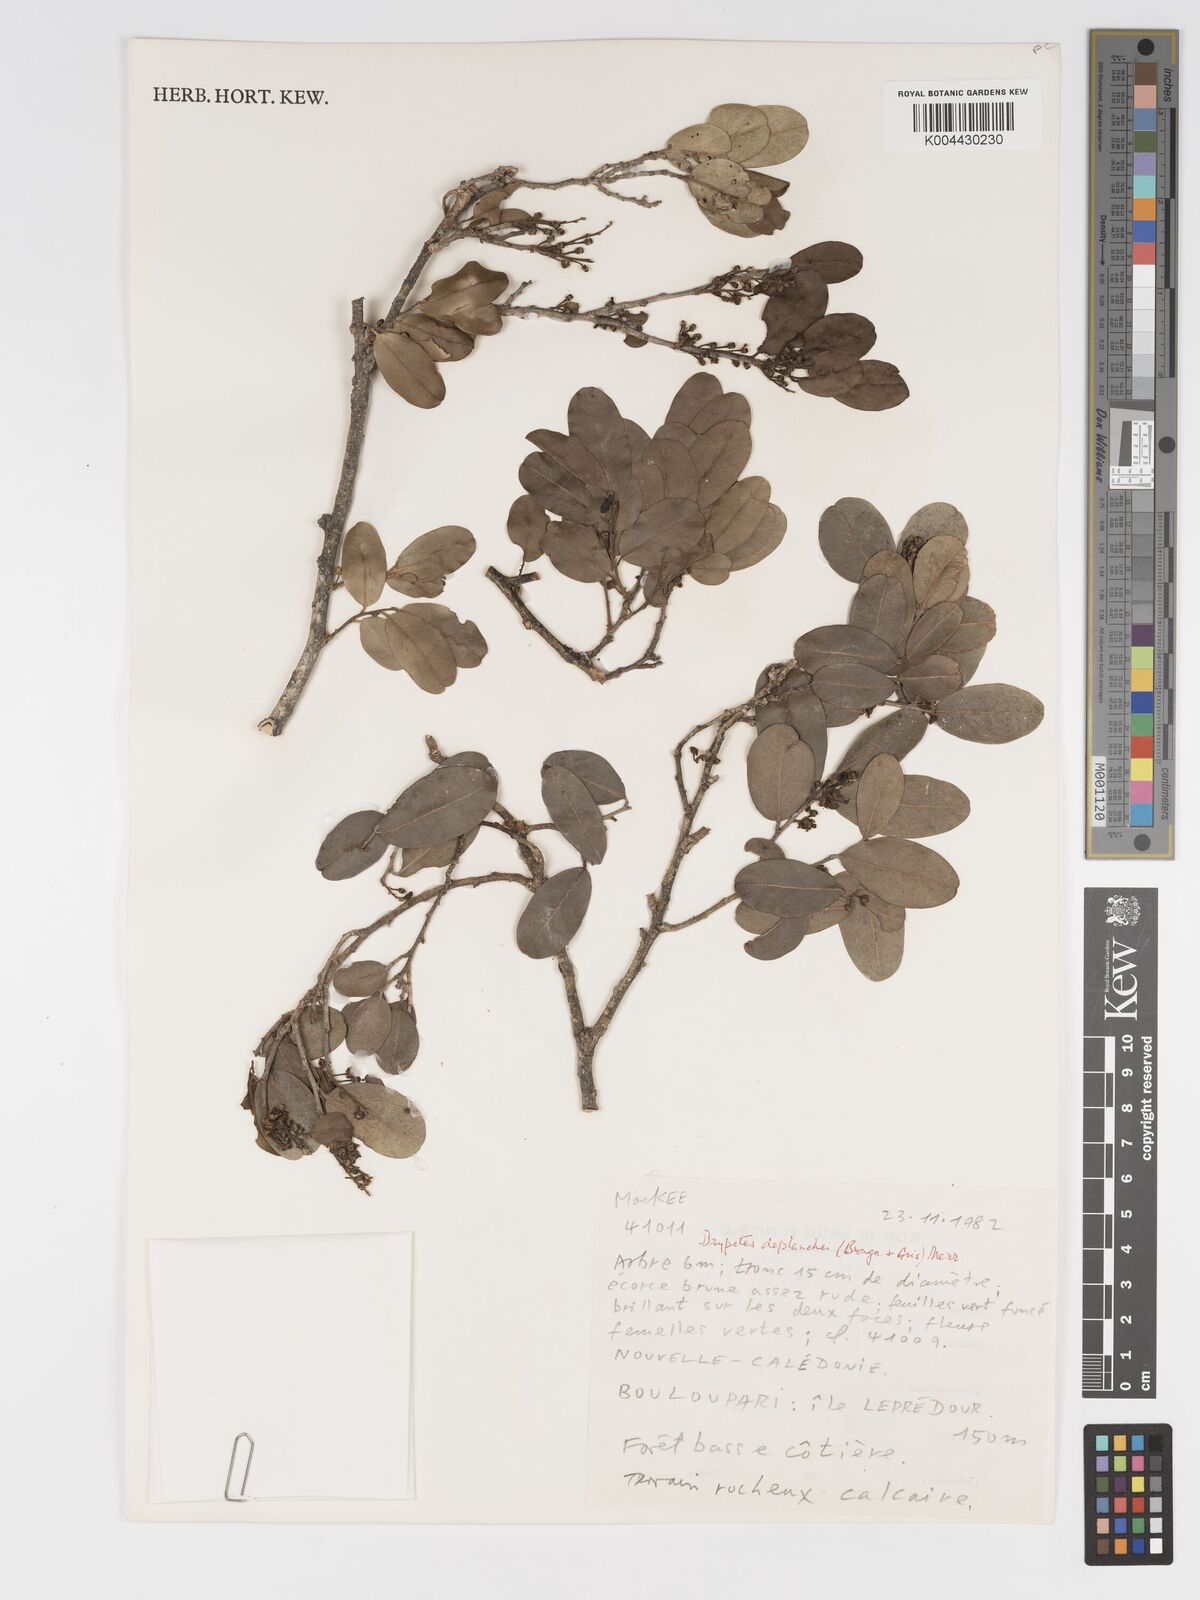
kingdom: Plantae
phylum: Tracheophyta
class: Magnoliopsida
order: Malpighiales
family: Putranjivaceae
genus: Drypetes
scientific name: Drypetes deplanchei
